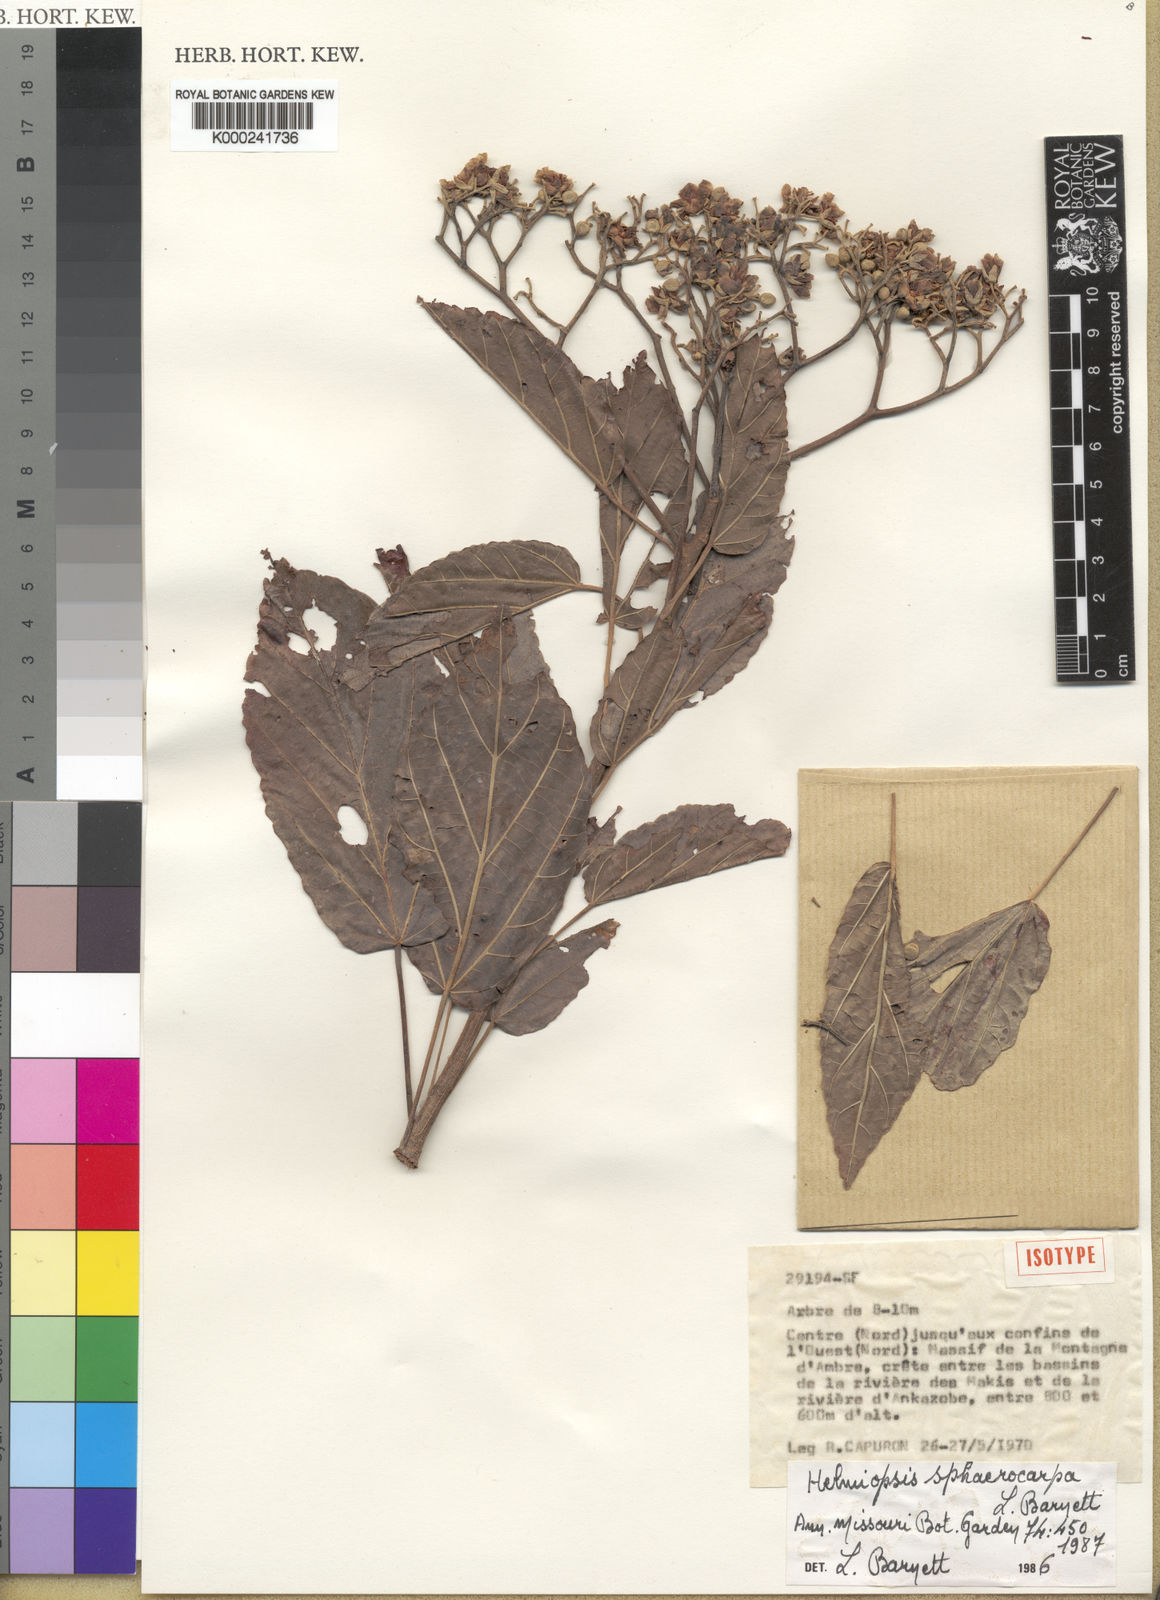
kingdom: Plantae
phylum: Tracheophyta
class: Magnoliopsida
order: Malvales
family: Malvaceae
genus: Eriolaena
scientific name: Eriolaena sphaerocarpa
